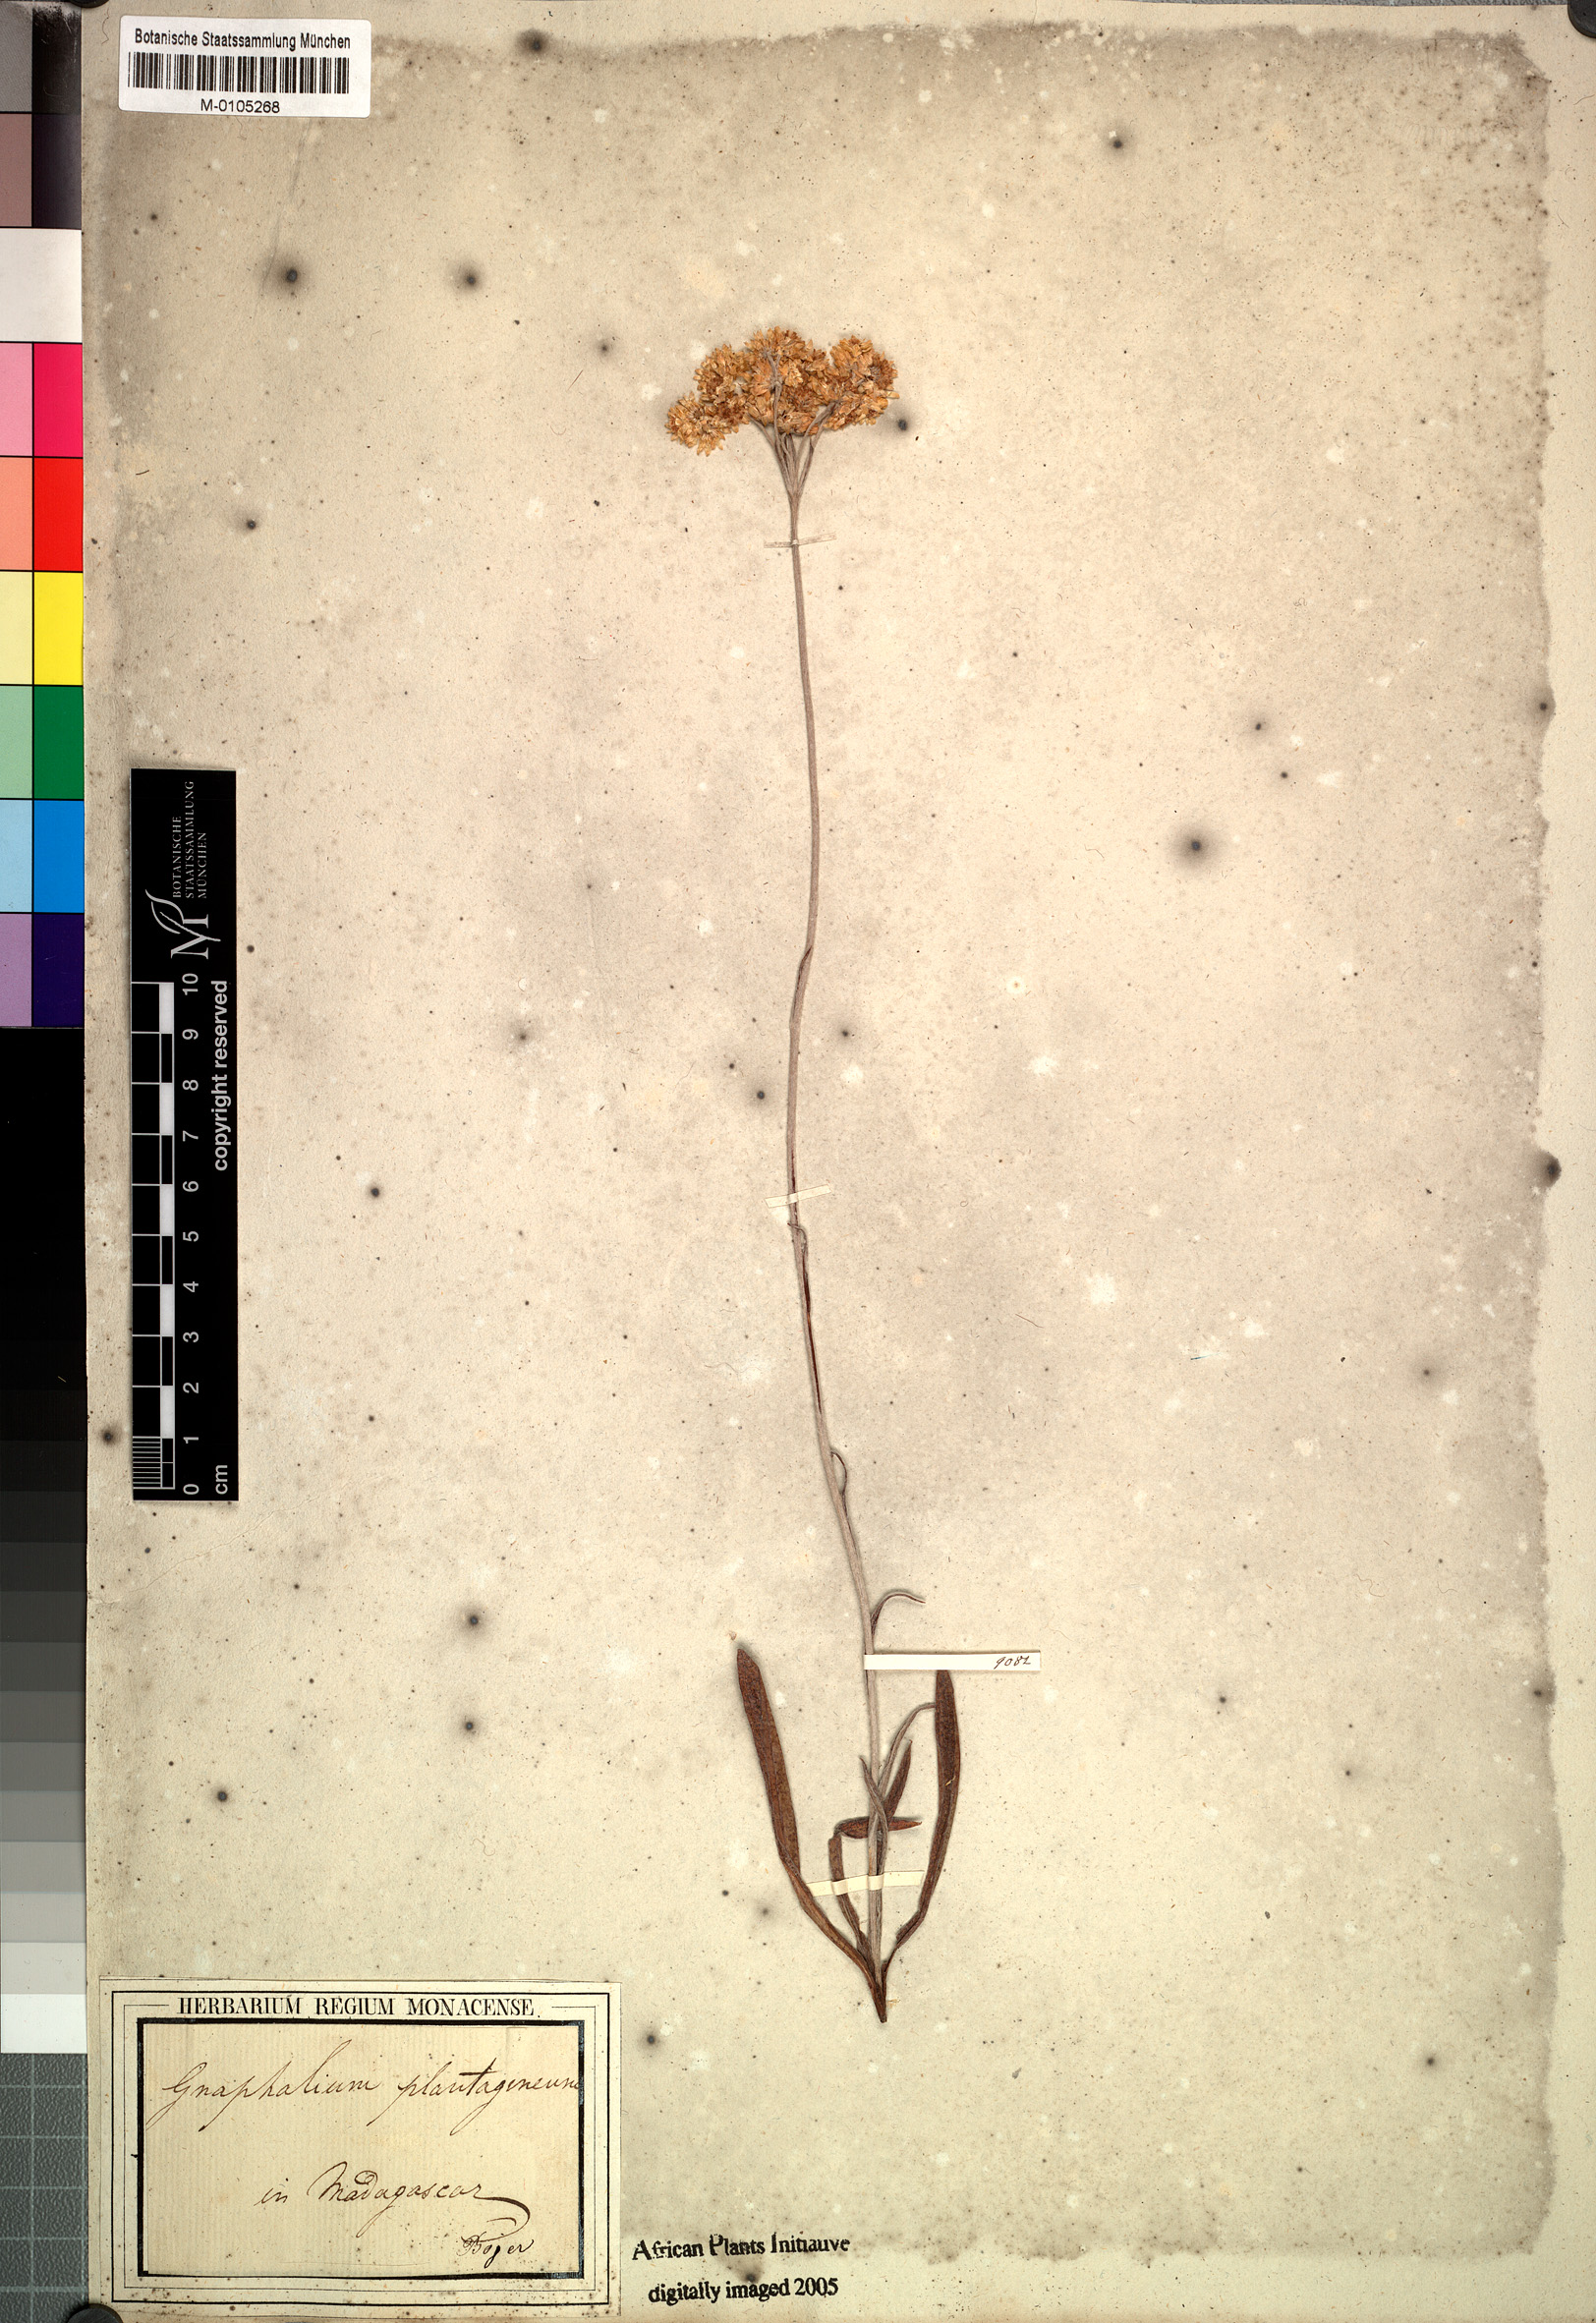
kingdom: Plantae
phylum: Tracheophyta
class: Magnoliopsida
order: Asterales
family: Asteraceae
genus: Helichrysum
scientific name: Helichrysum plantago
